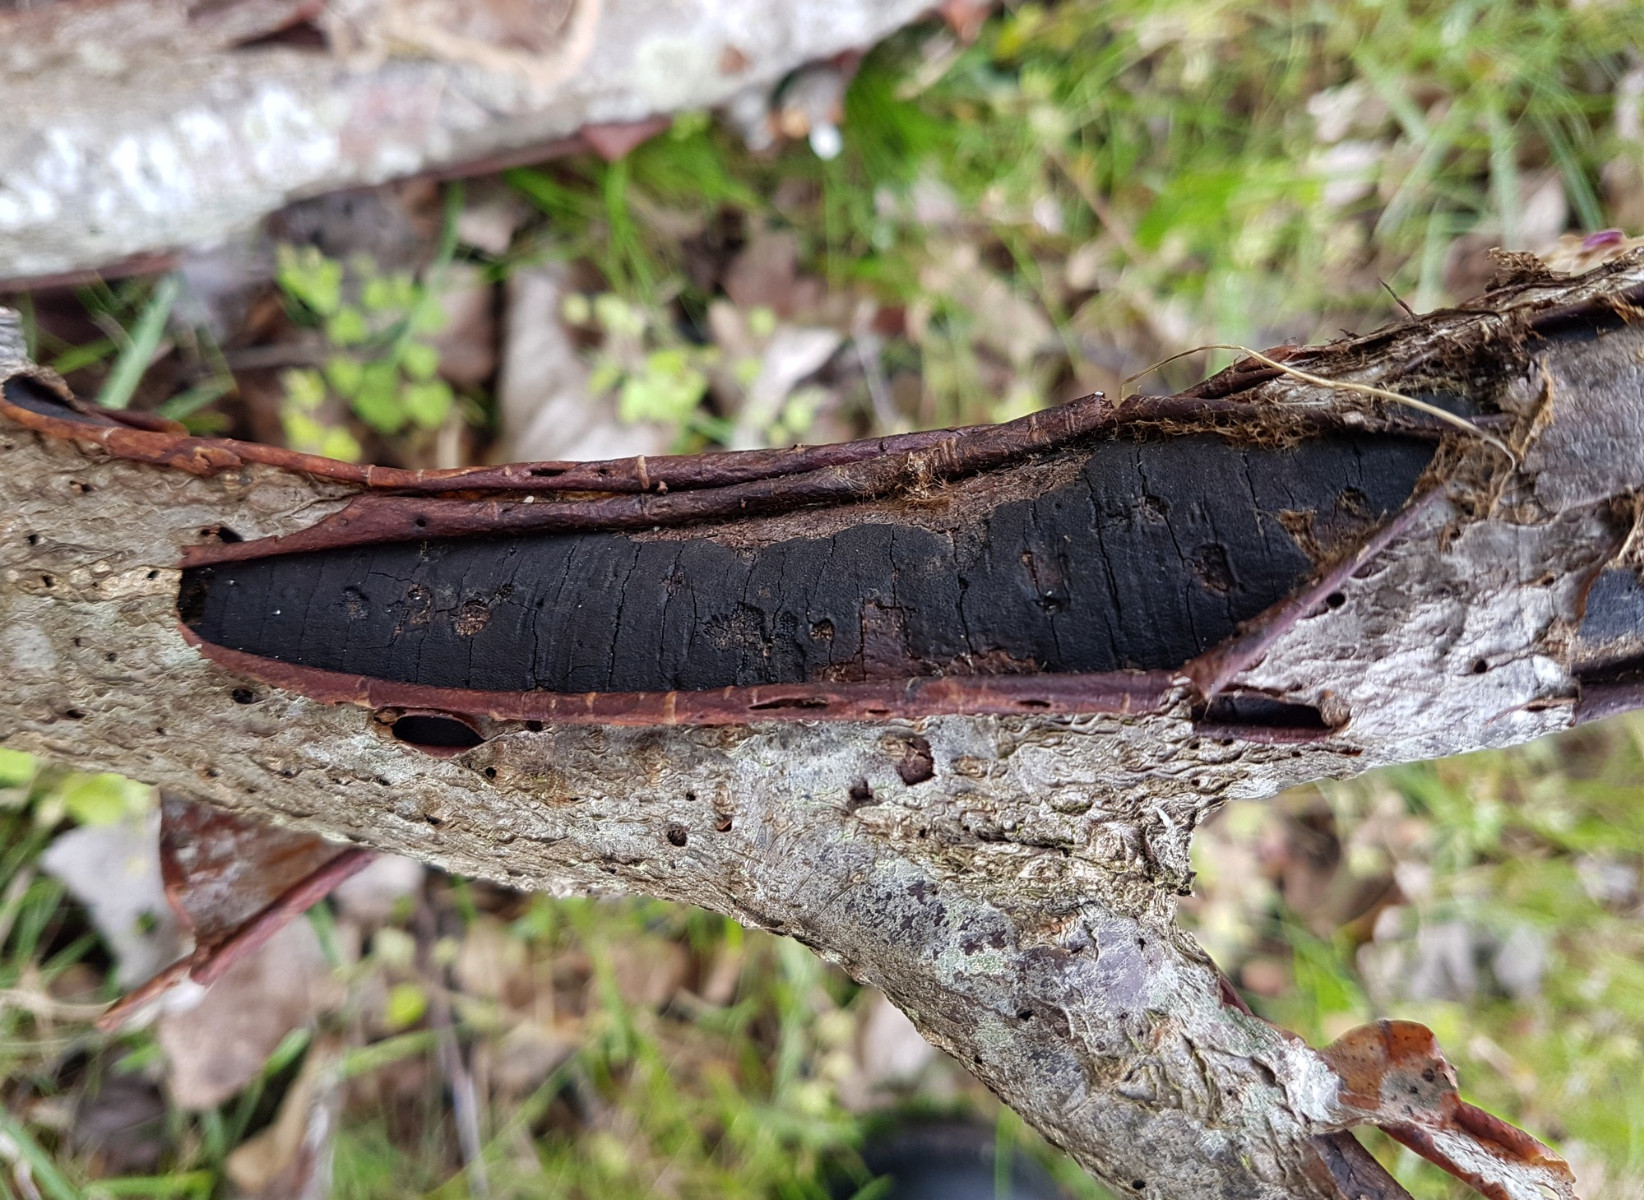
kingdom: Fungi
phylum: Ascomycota
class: Sordariomycetes
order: Xylariales
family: Diatrypaceae
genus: Diatrype
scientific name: Diatrype
